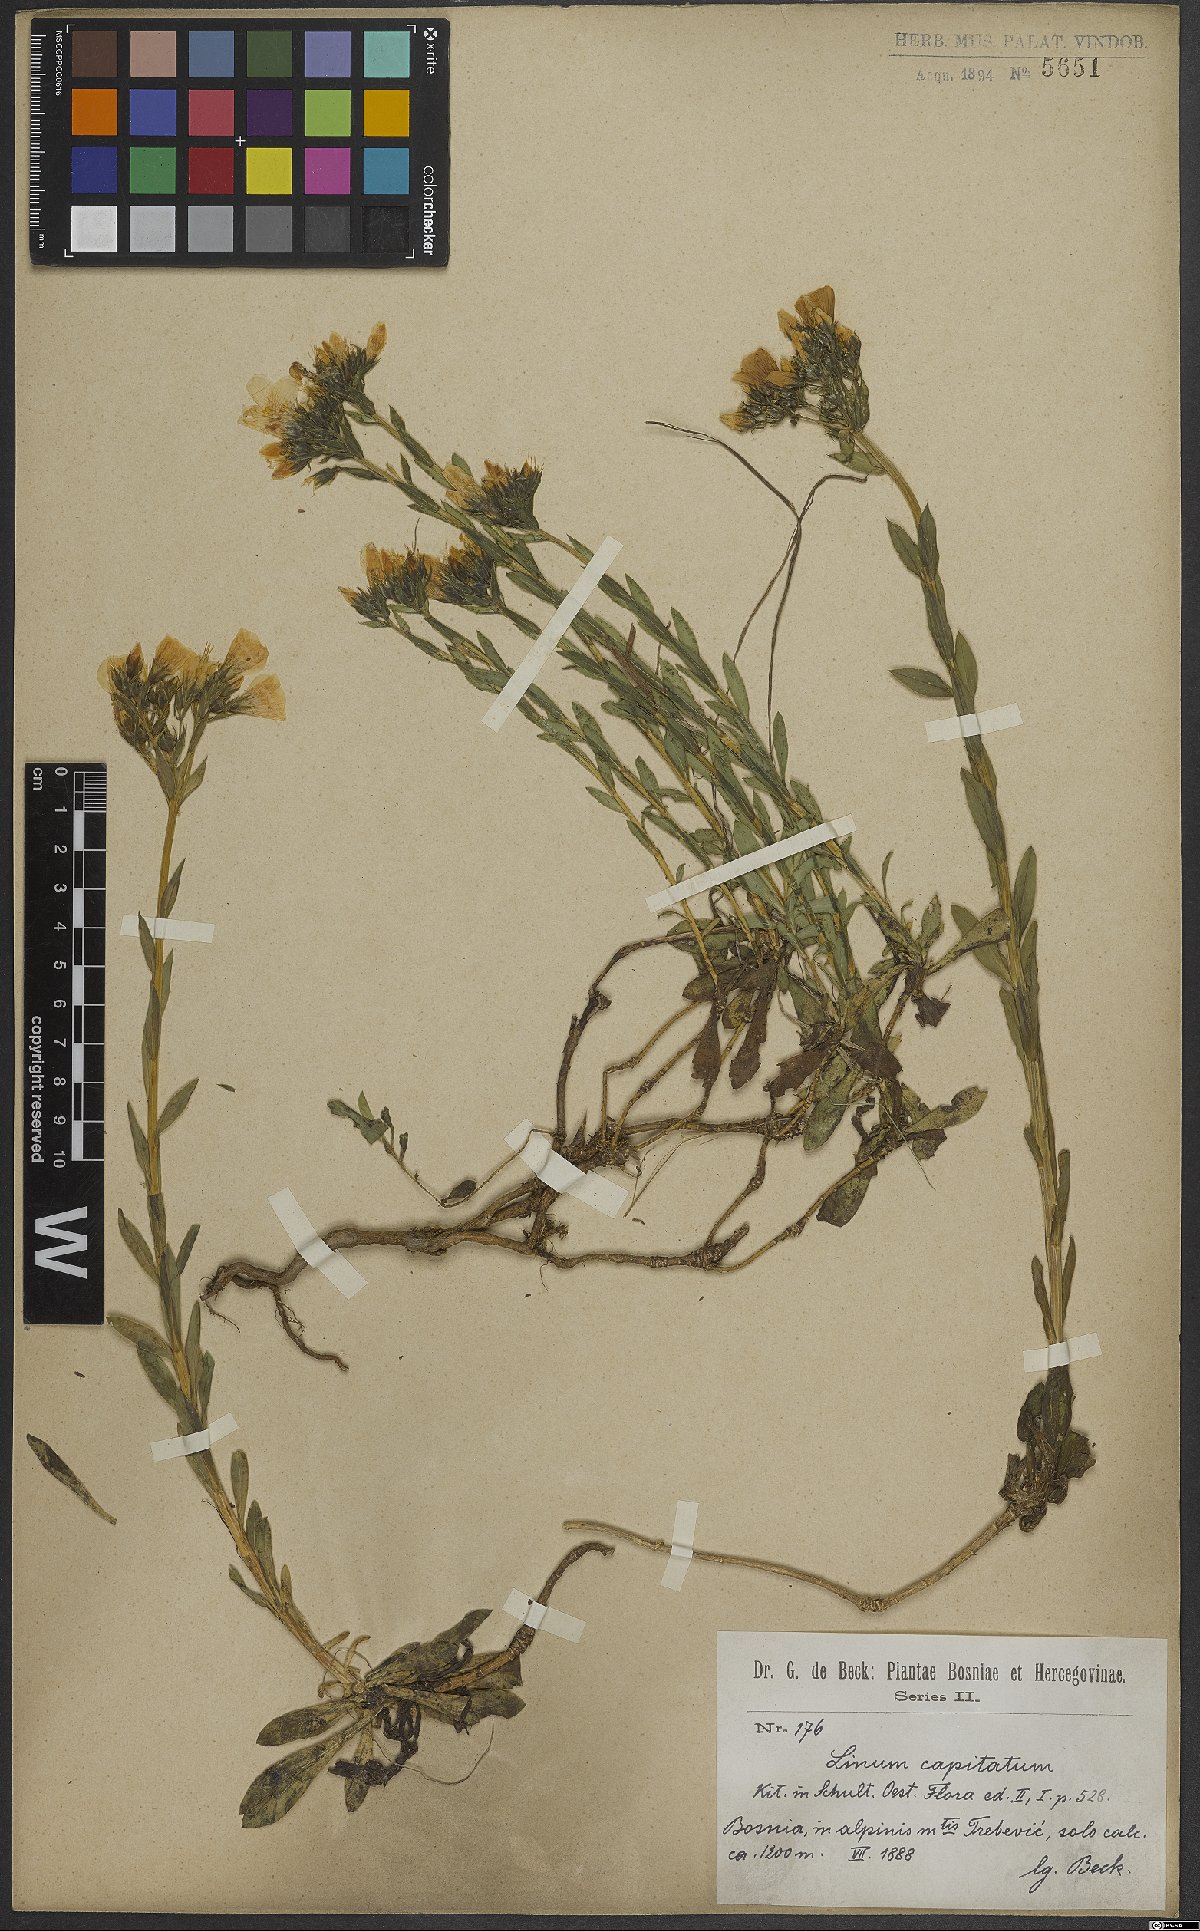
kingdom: Plantae
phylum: Tracheophyta
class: Magnoliopsida
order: Malpighiales
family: Linaceae
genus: Linum
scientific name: Linum capitatum
